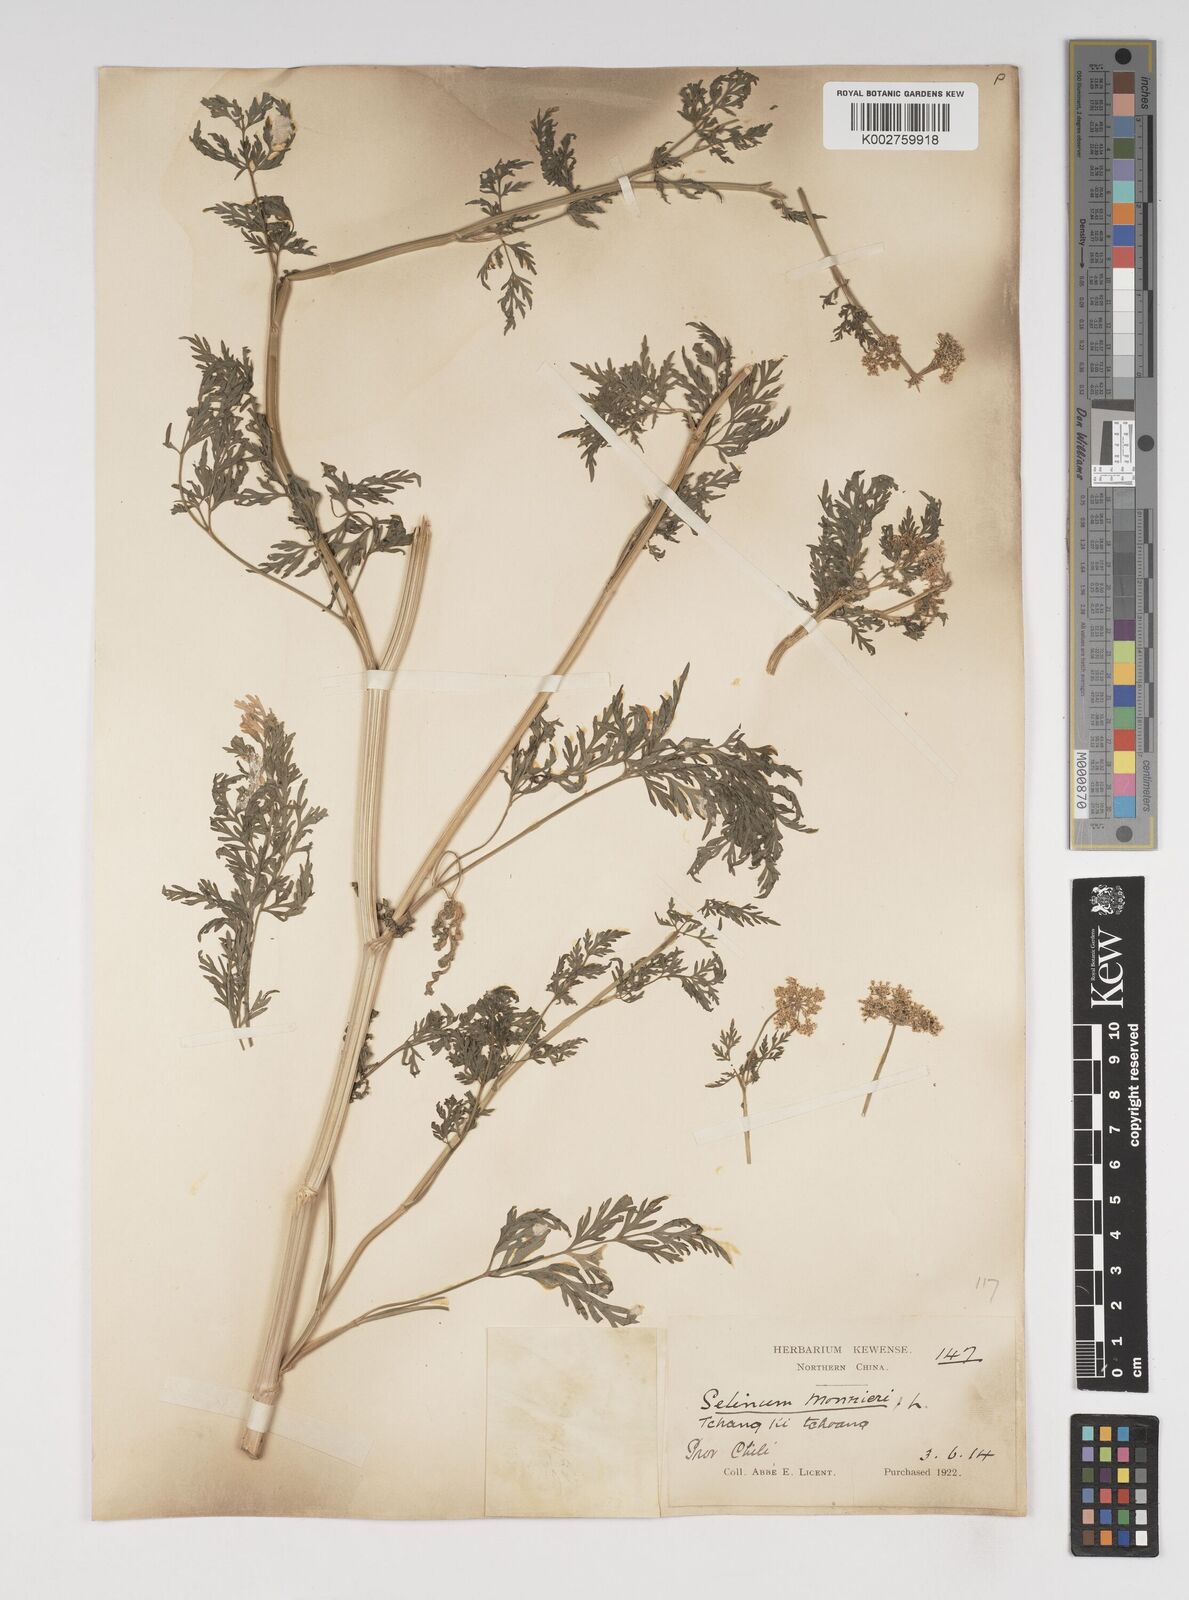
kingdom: Plantae
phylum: Tracheophyta
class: Magnoliopsida
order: Apiales
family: Apiaceae
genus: Cnidium
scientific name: Cnidium monnieri
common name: Monnier's snowparsley
